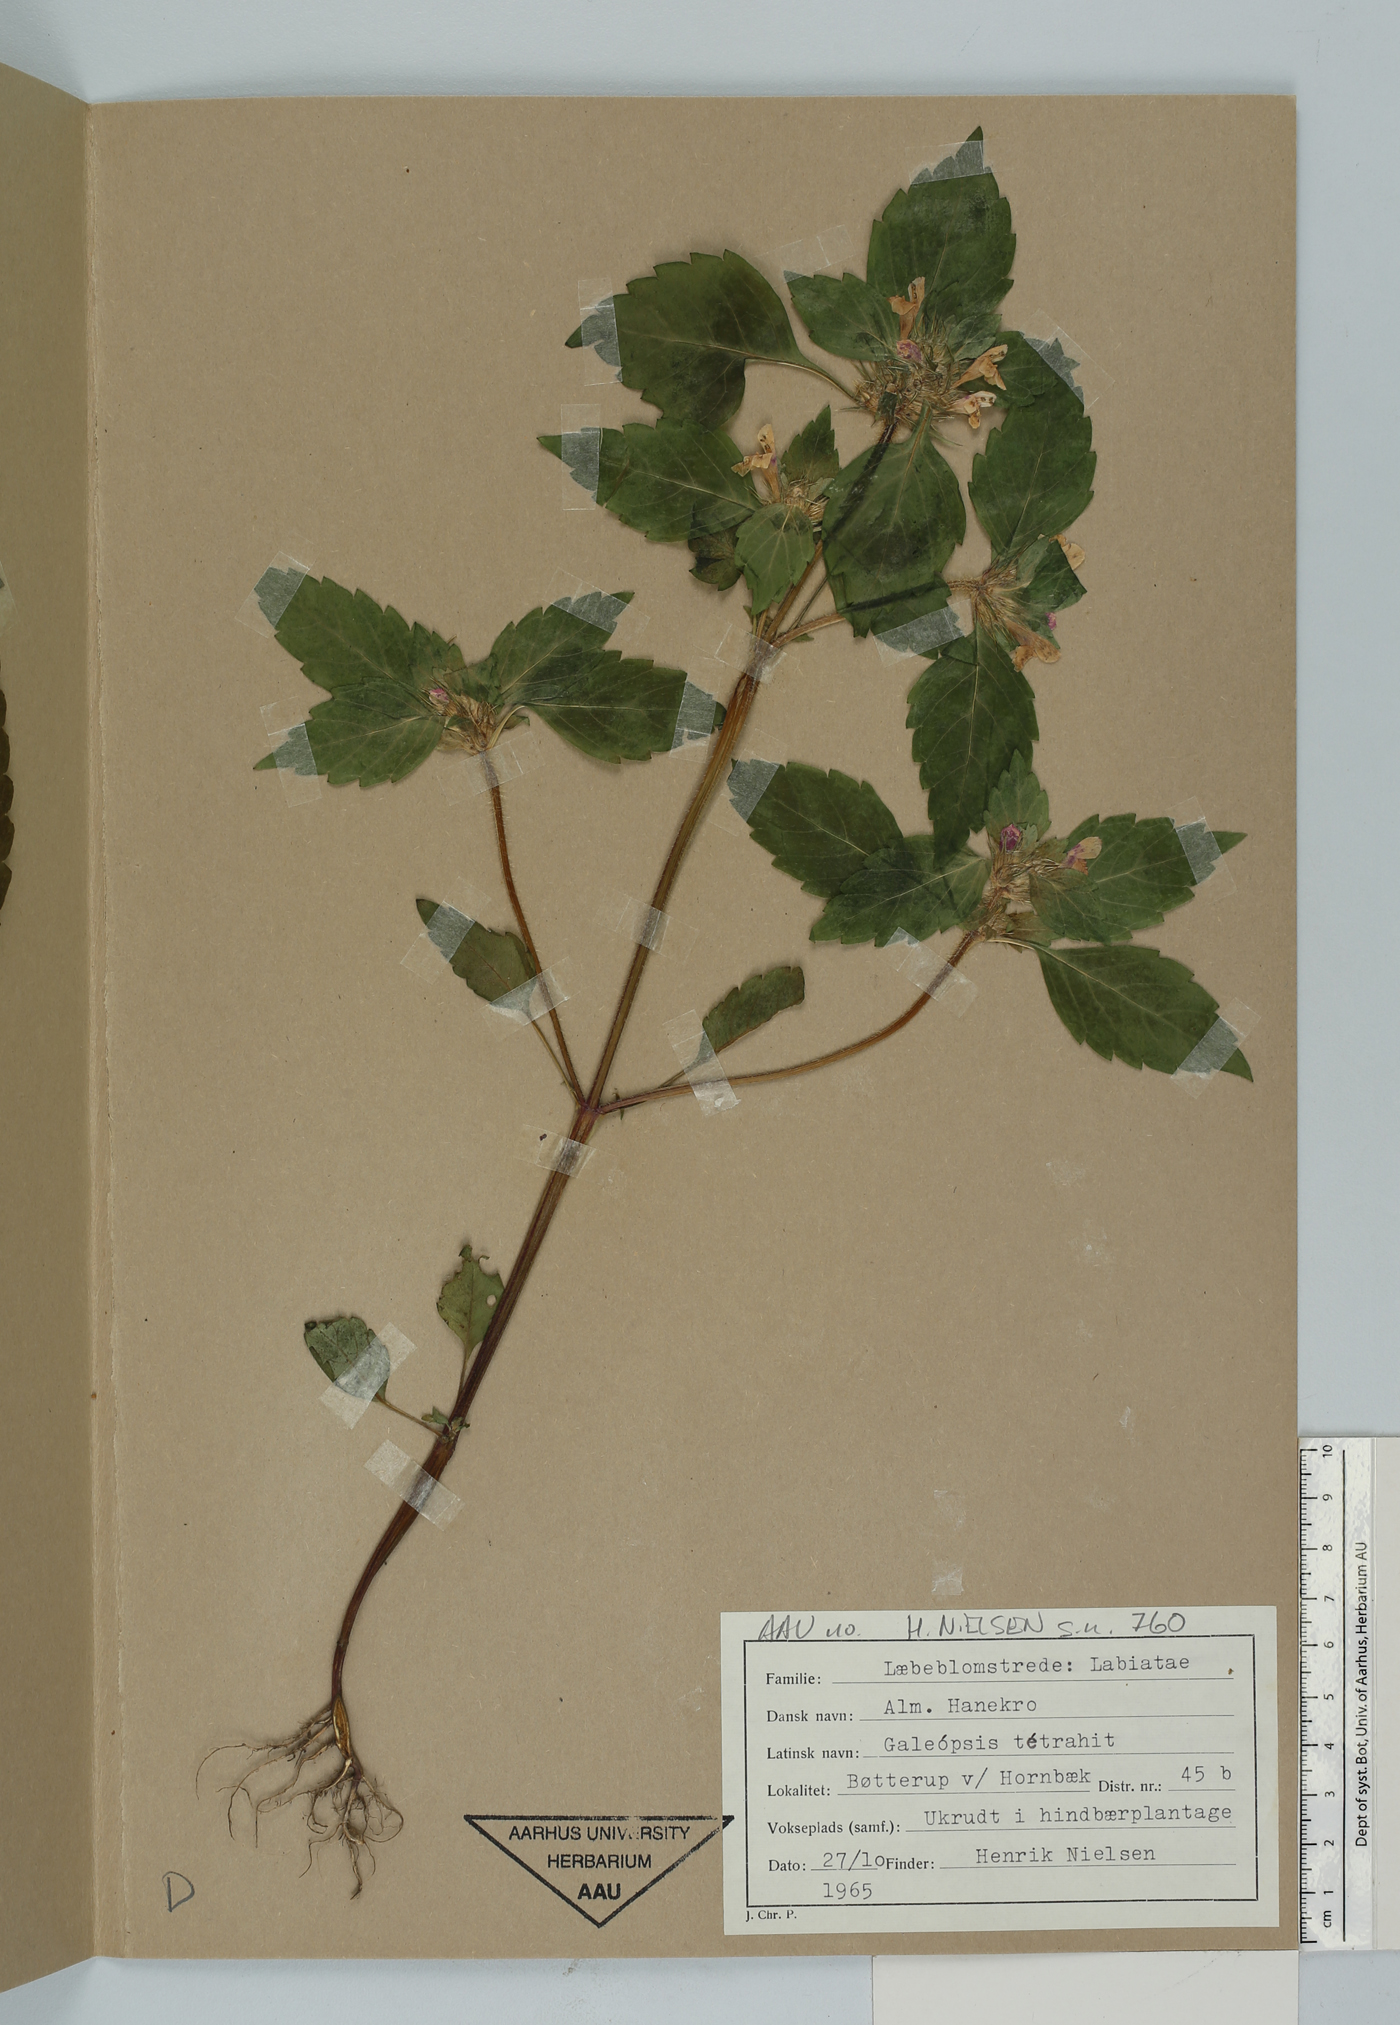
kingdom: Plantae
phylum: Tracheophyta
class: Magnoliopsida
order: Lamiales
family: Lamiaceae
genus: Galeopsis
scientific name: Galeopsis tetrahit
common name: Common hemp-nettle
